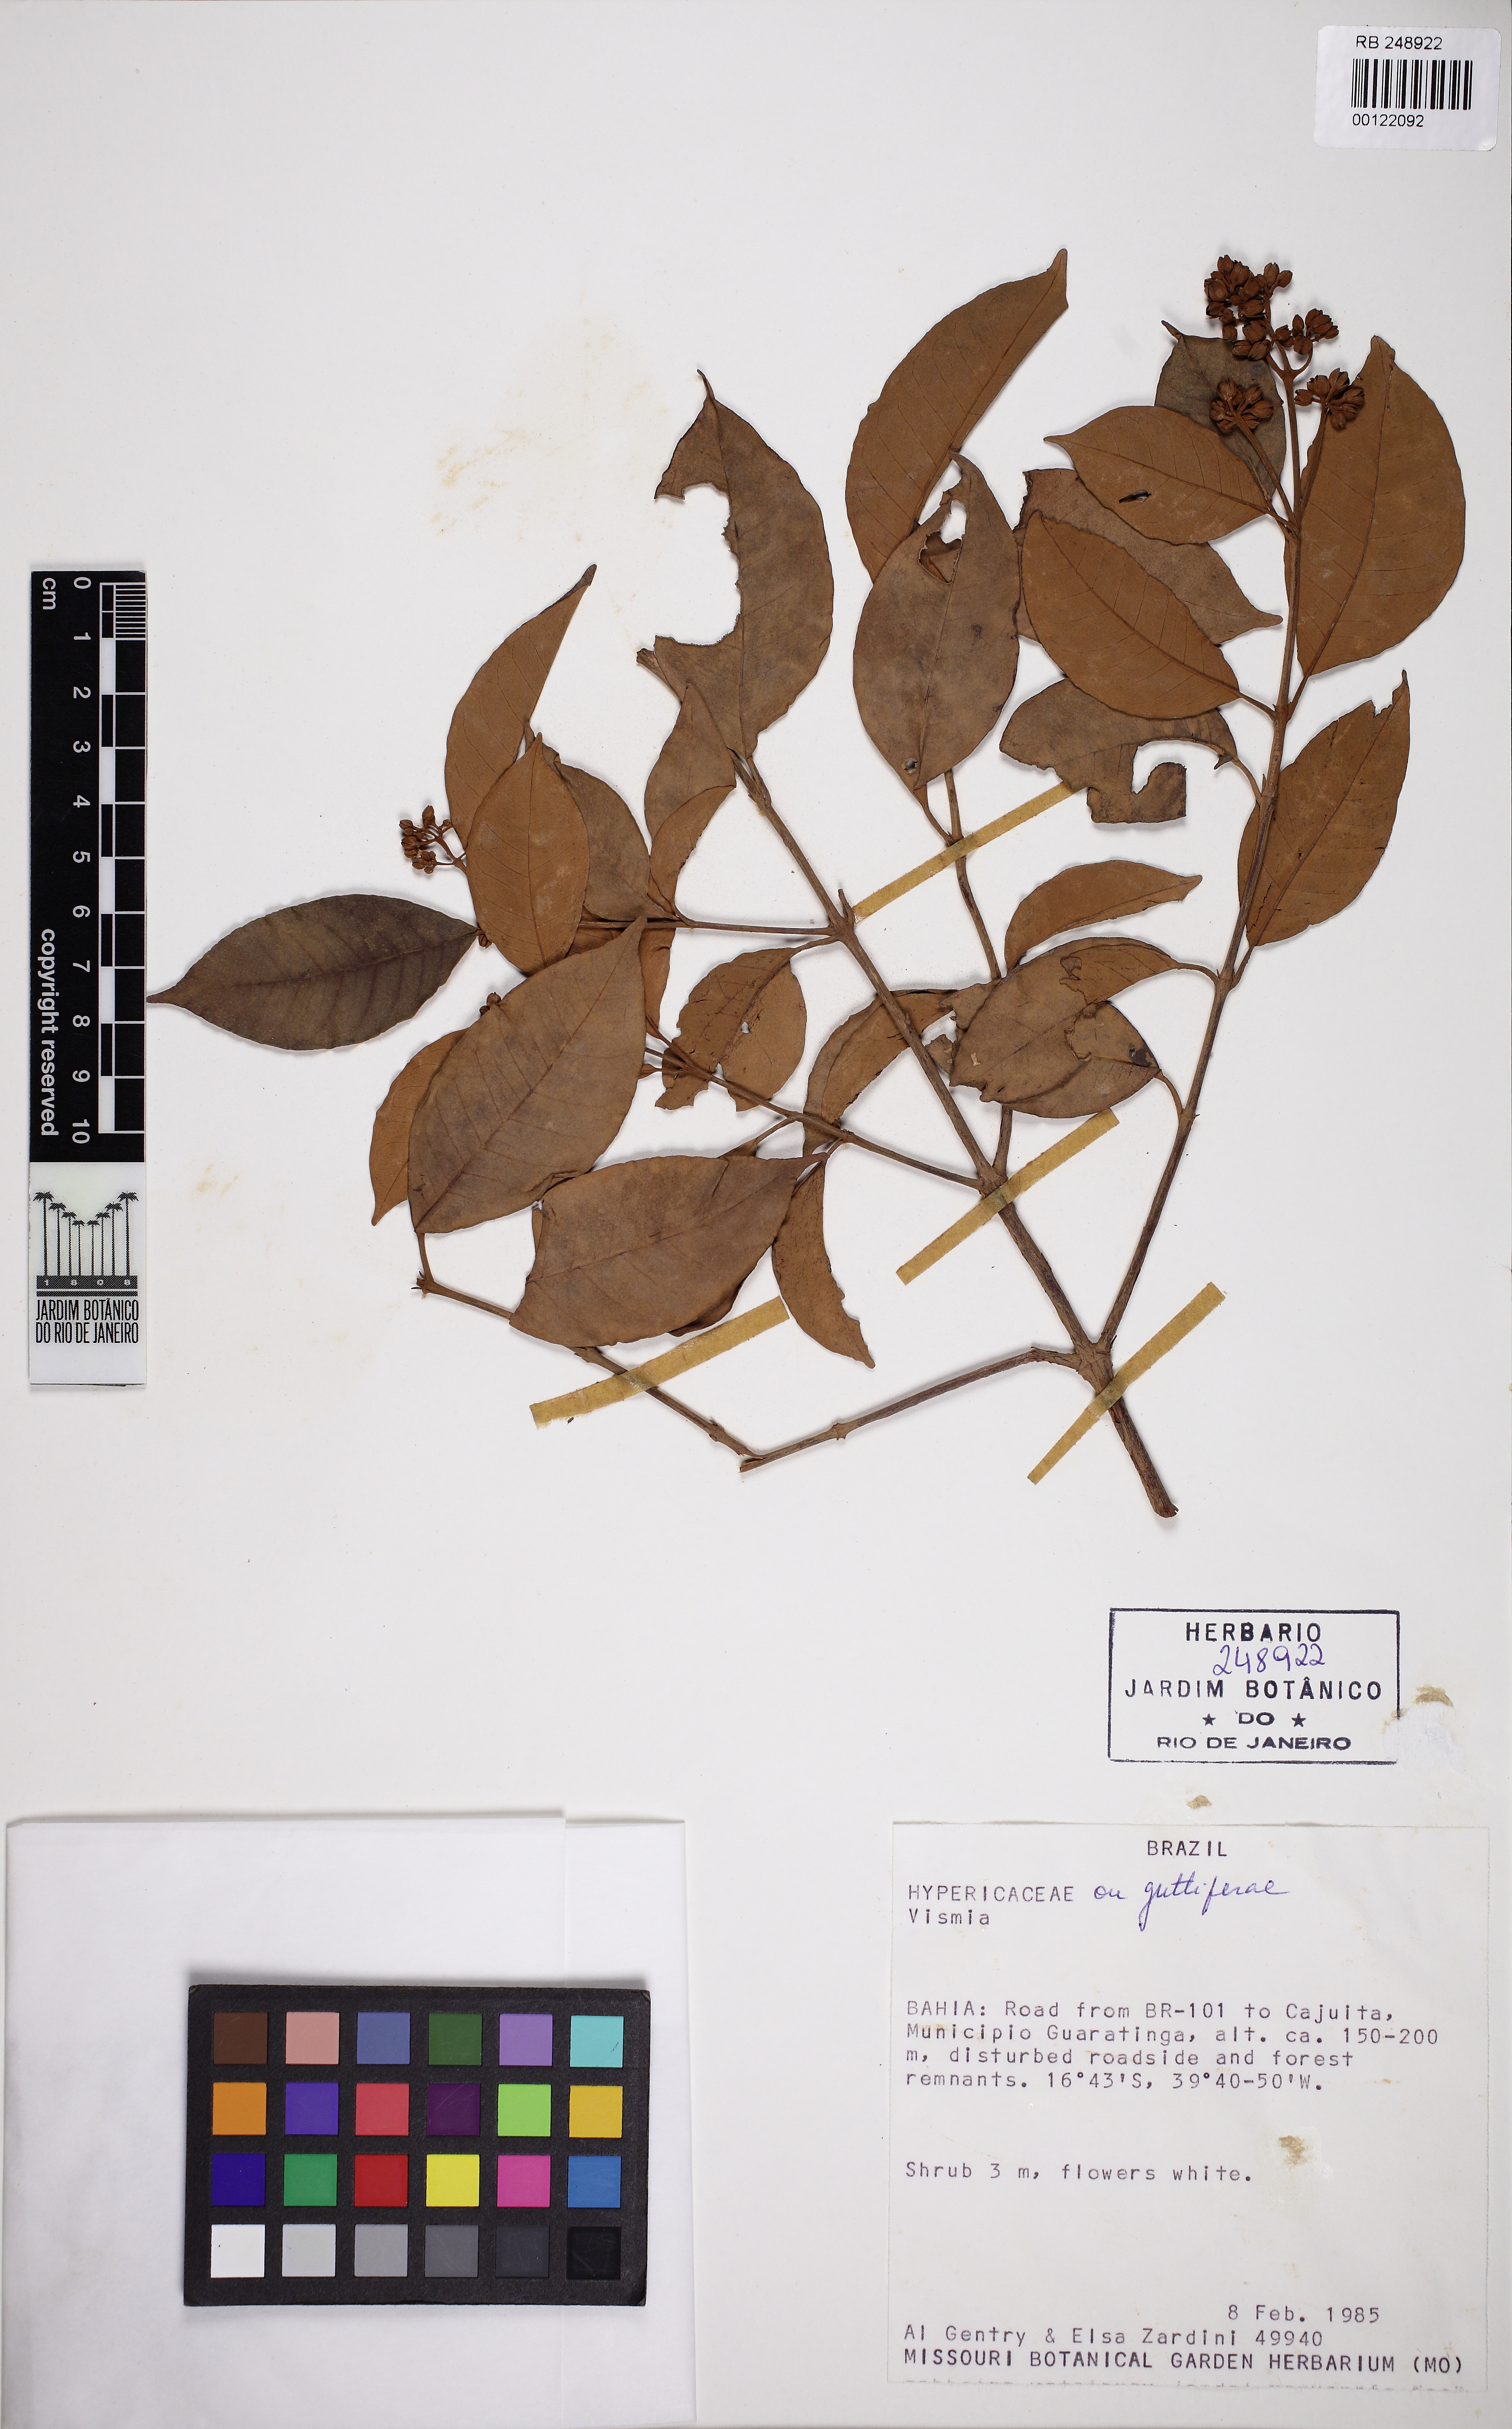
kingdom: Plantae
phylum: Tracheophyta
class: Magnoliopsida
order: Malpighiales
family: Hypericaceae
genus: Vismia
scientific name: Vismia pentagyna
